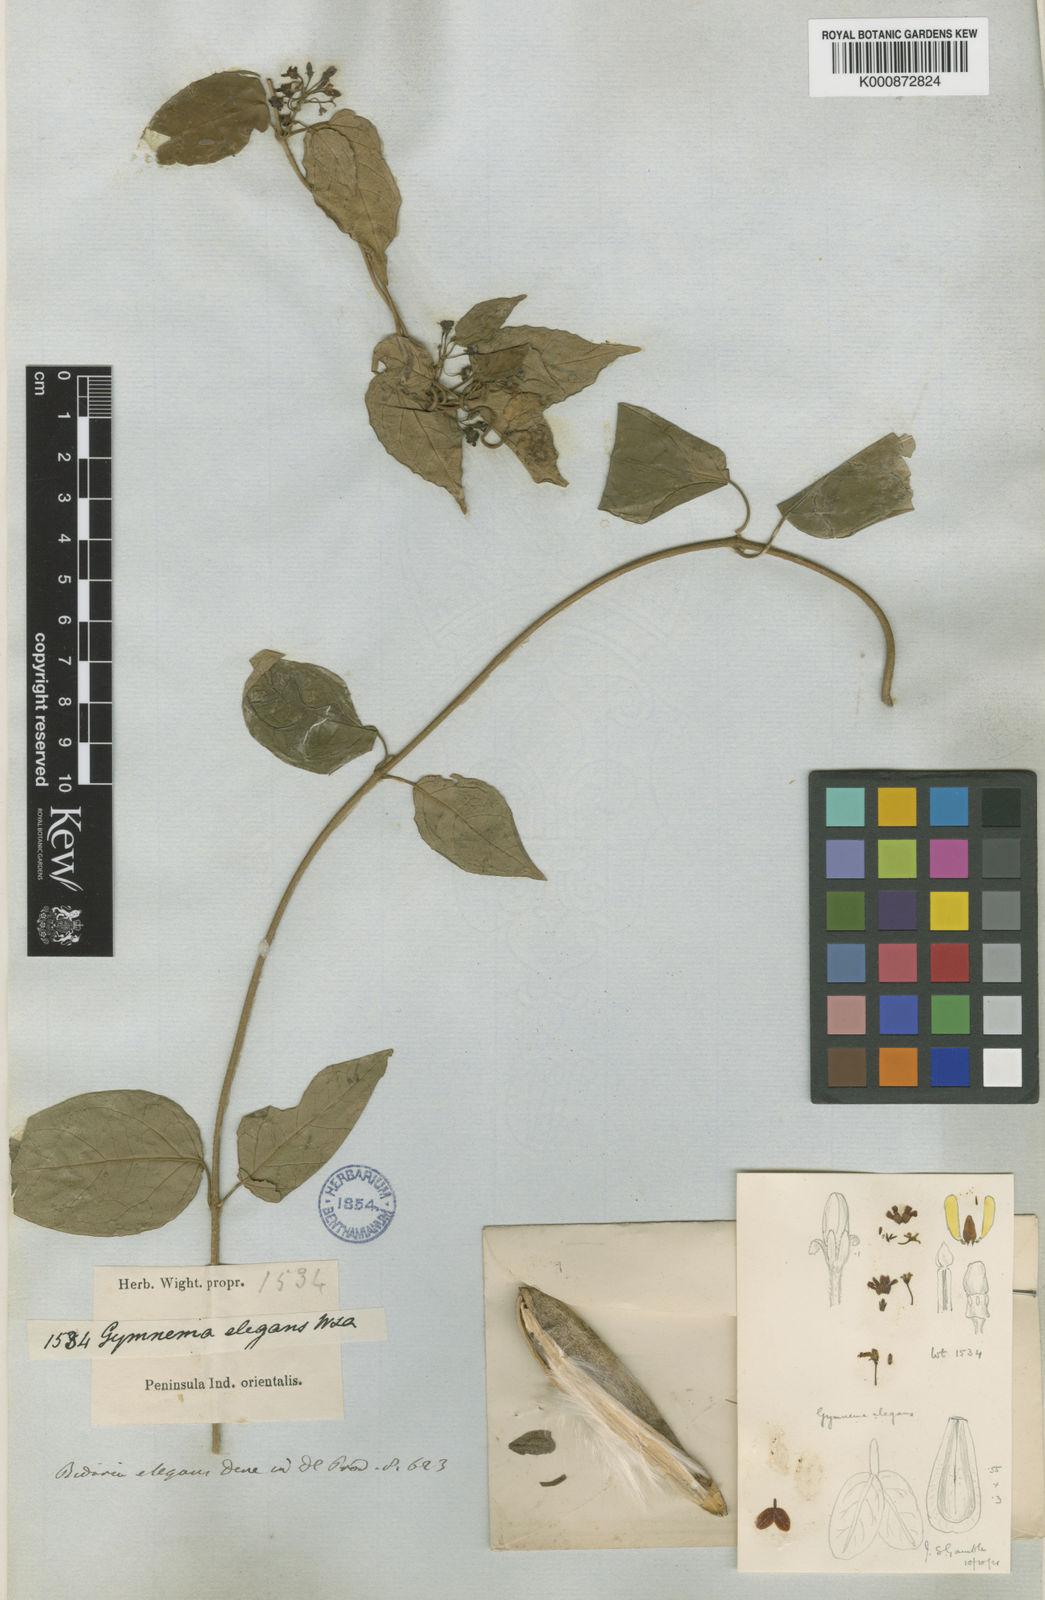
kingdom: Plantae
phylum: Tracheophyta
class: Magnoliopsida
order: Gentianales
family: Apocynaceae
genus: Gymnema
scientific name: Gymnema elegans
